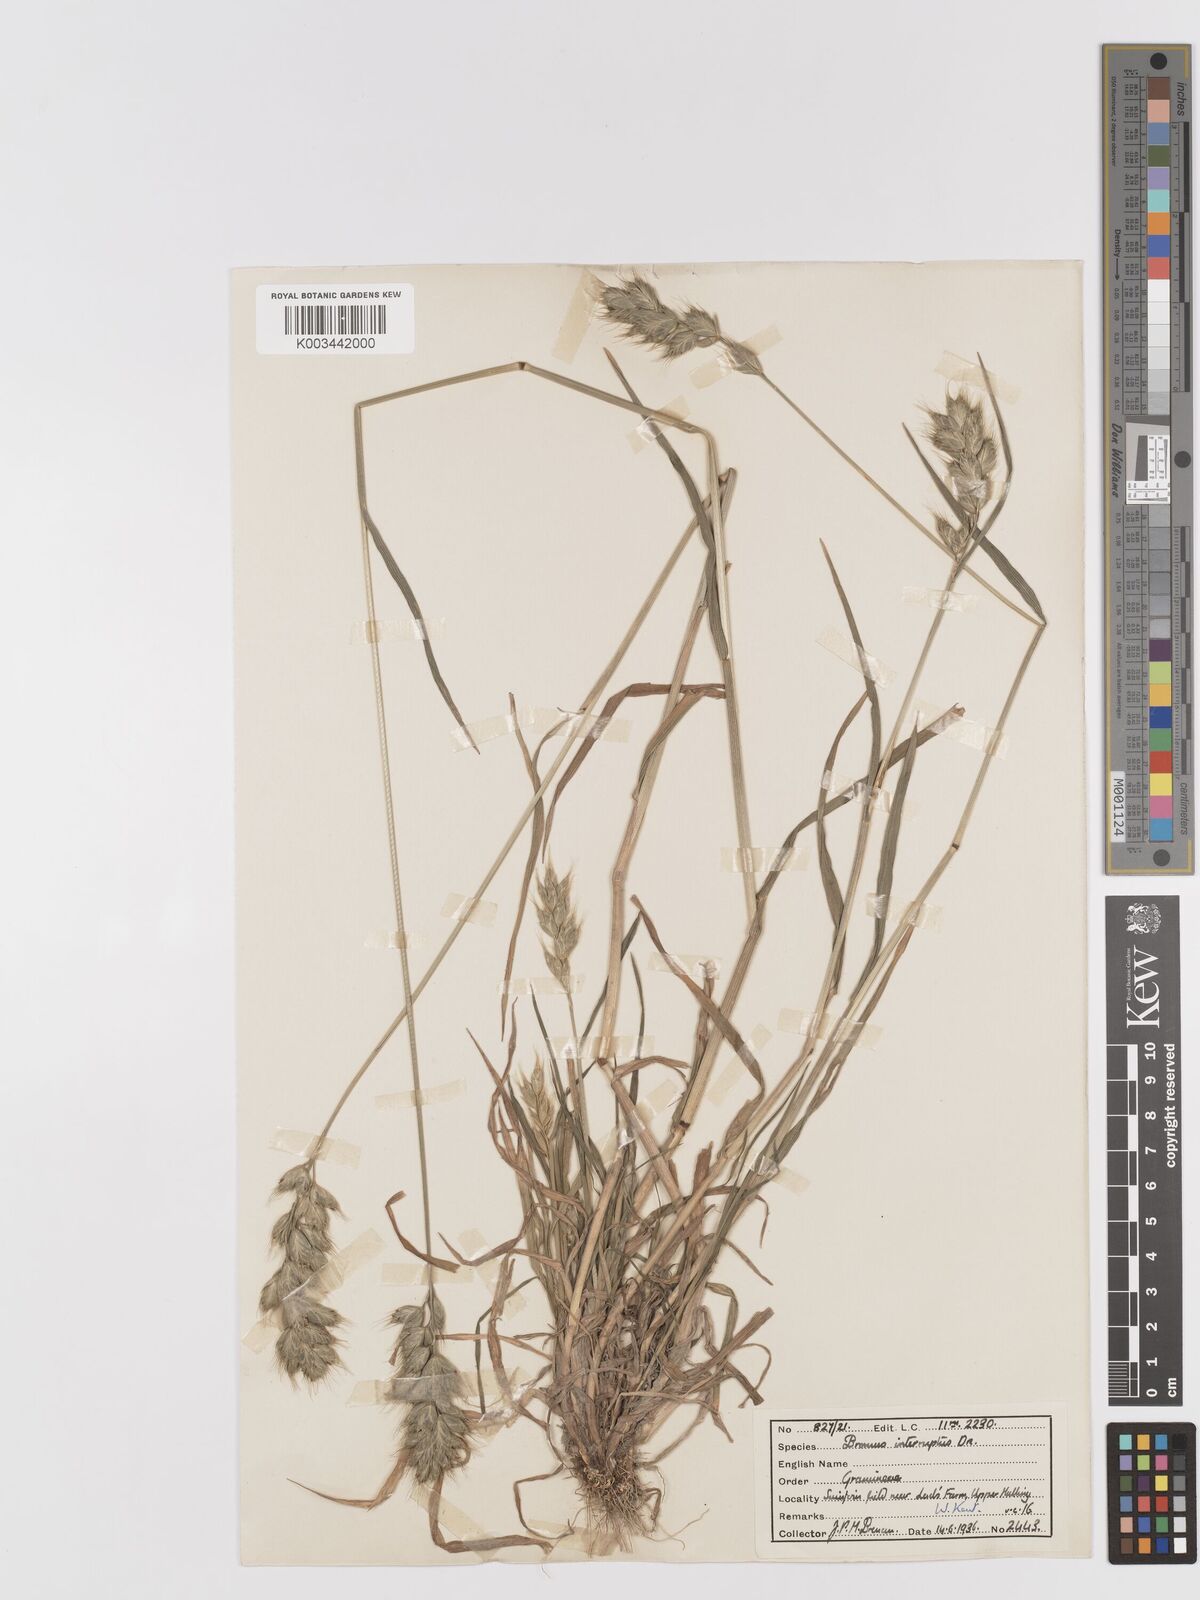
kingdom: Plantae
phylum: Tracheophyta
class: Liliopsida
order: Poales
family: Poaceae
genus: Bromus
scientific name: Bromus interruptus
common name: Interrupted brome
